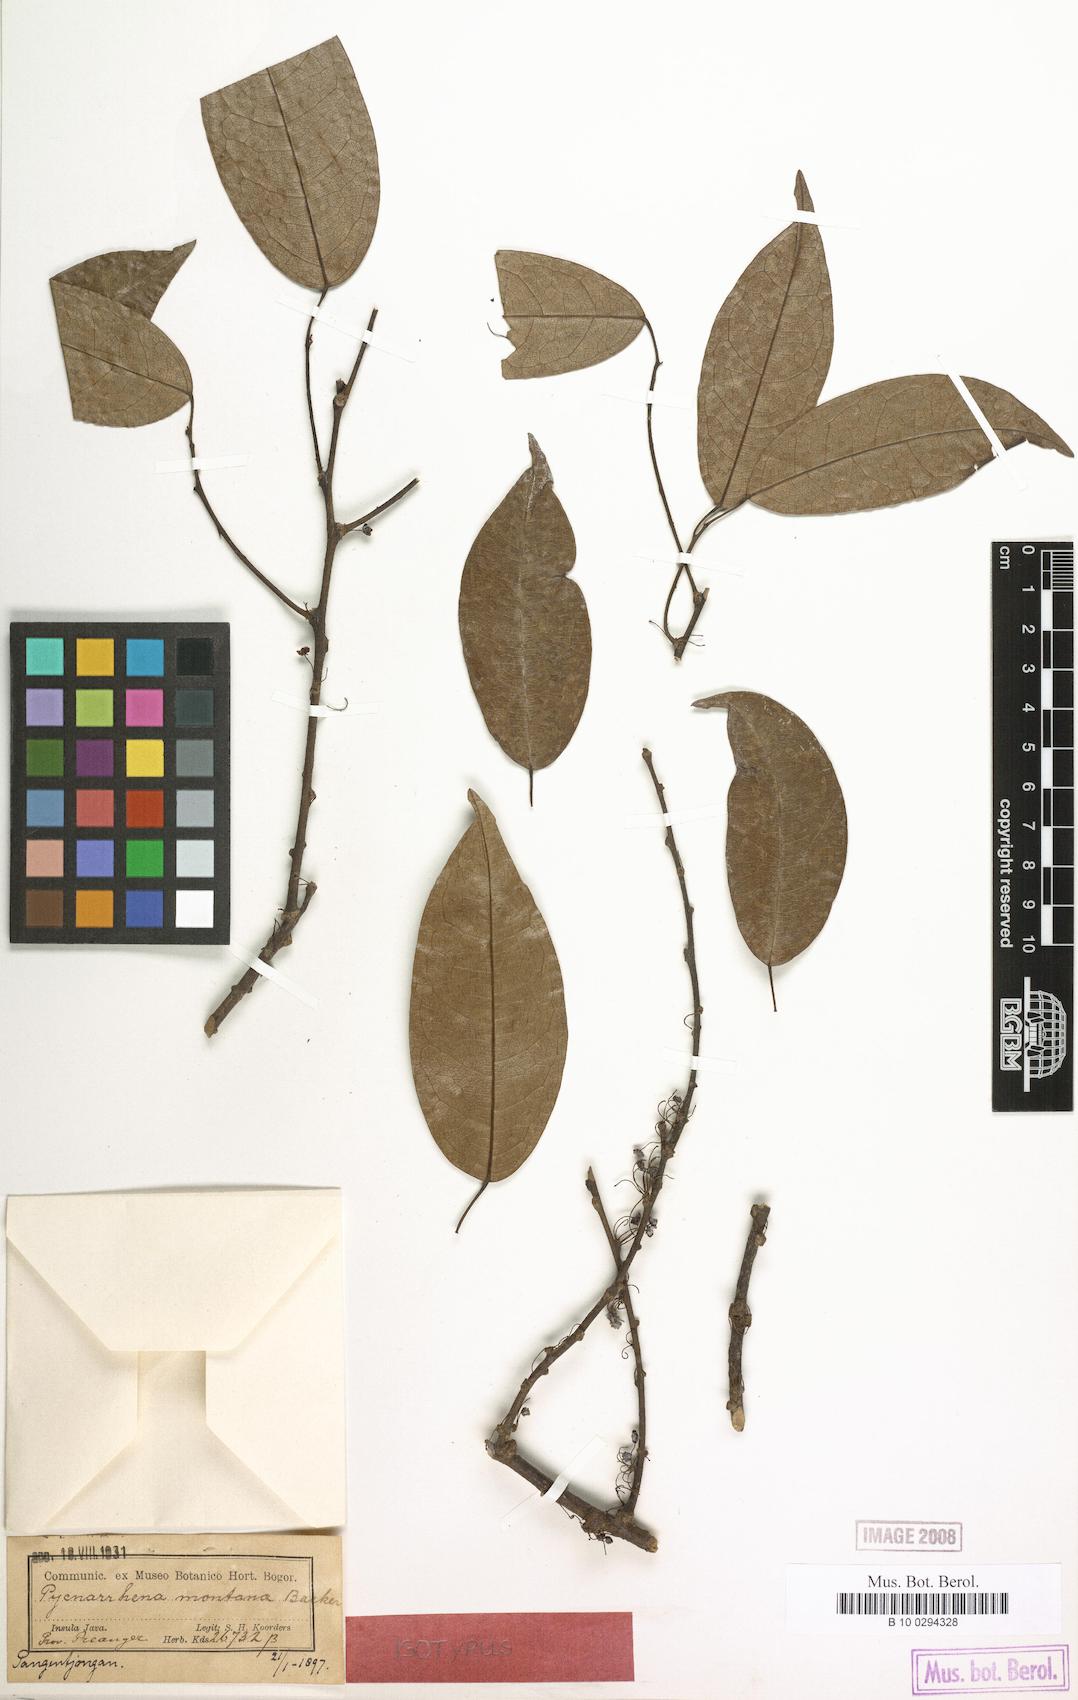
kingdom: Plantae
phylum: Tracheophyta
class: Magnoliopsida
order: Ranunculales
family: Menispermaceae
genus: Pycnarrhena
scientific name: Pycnarrhena montana
